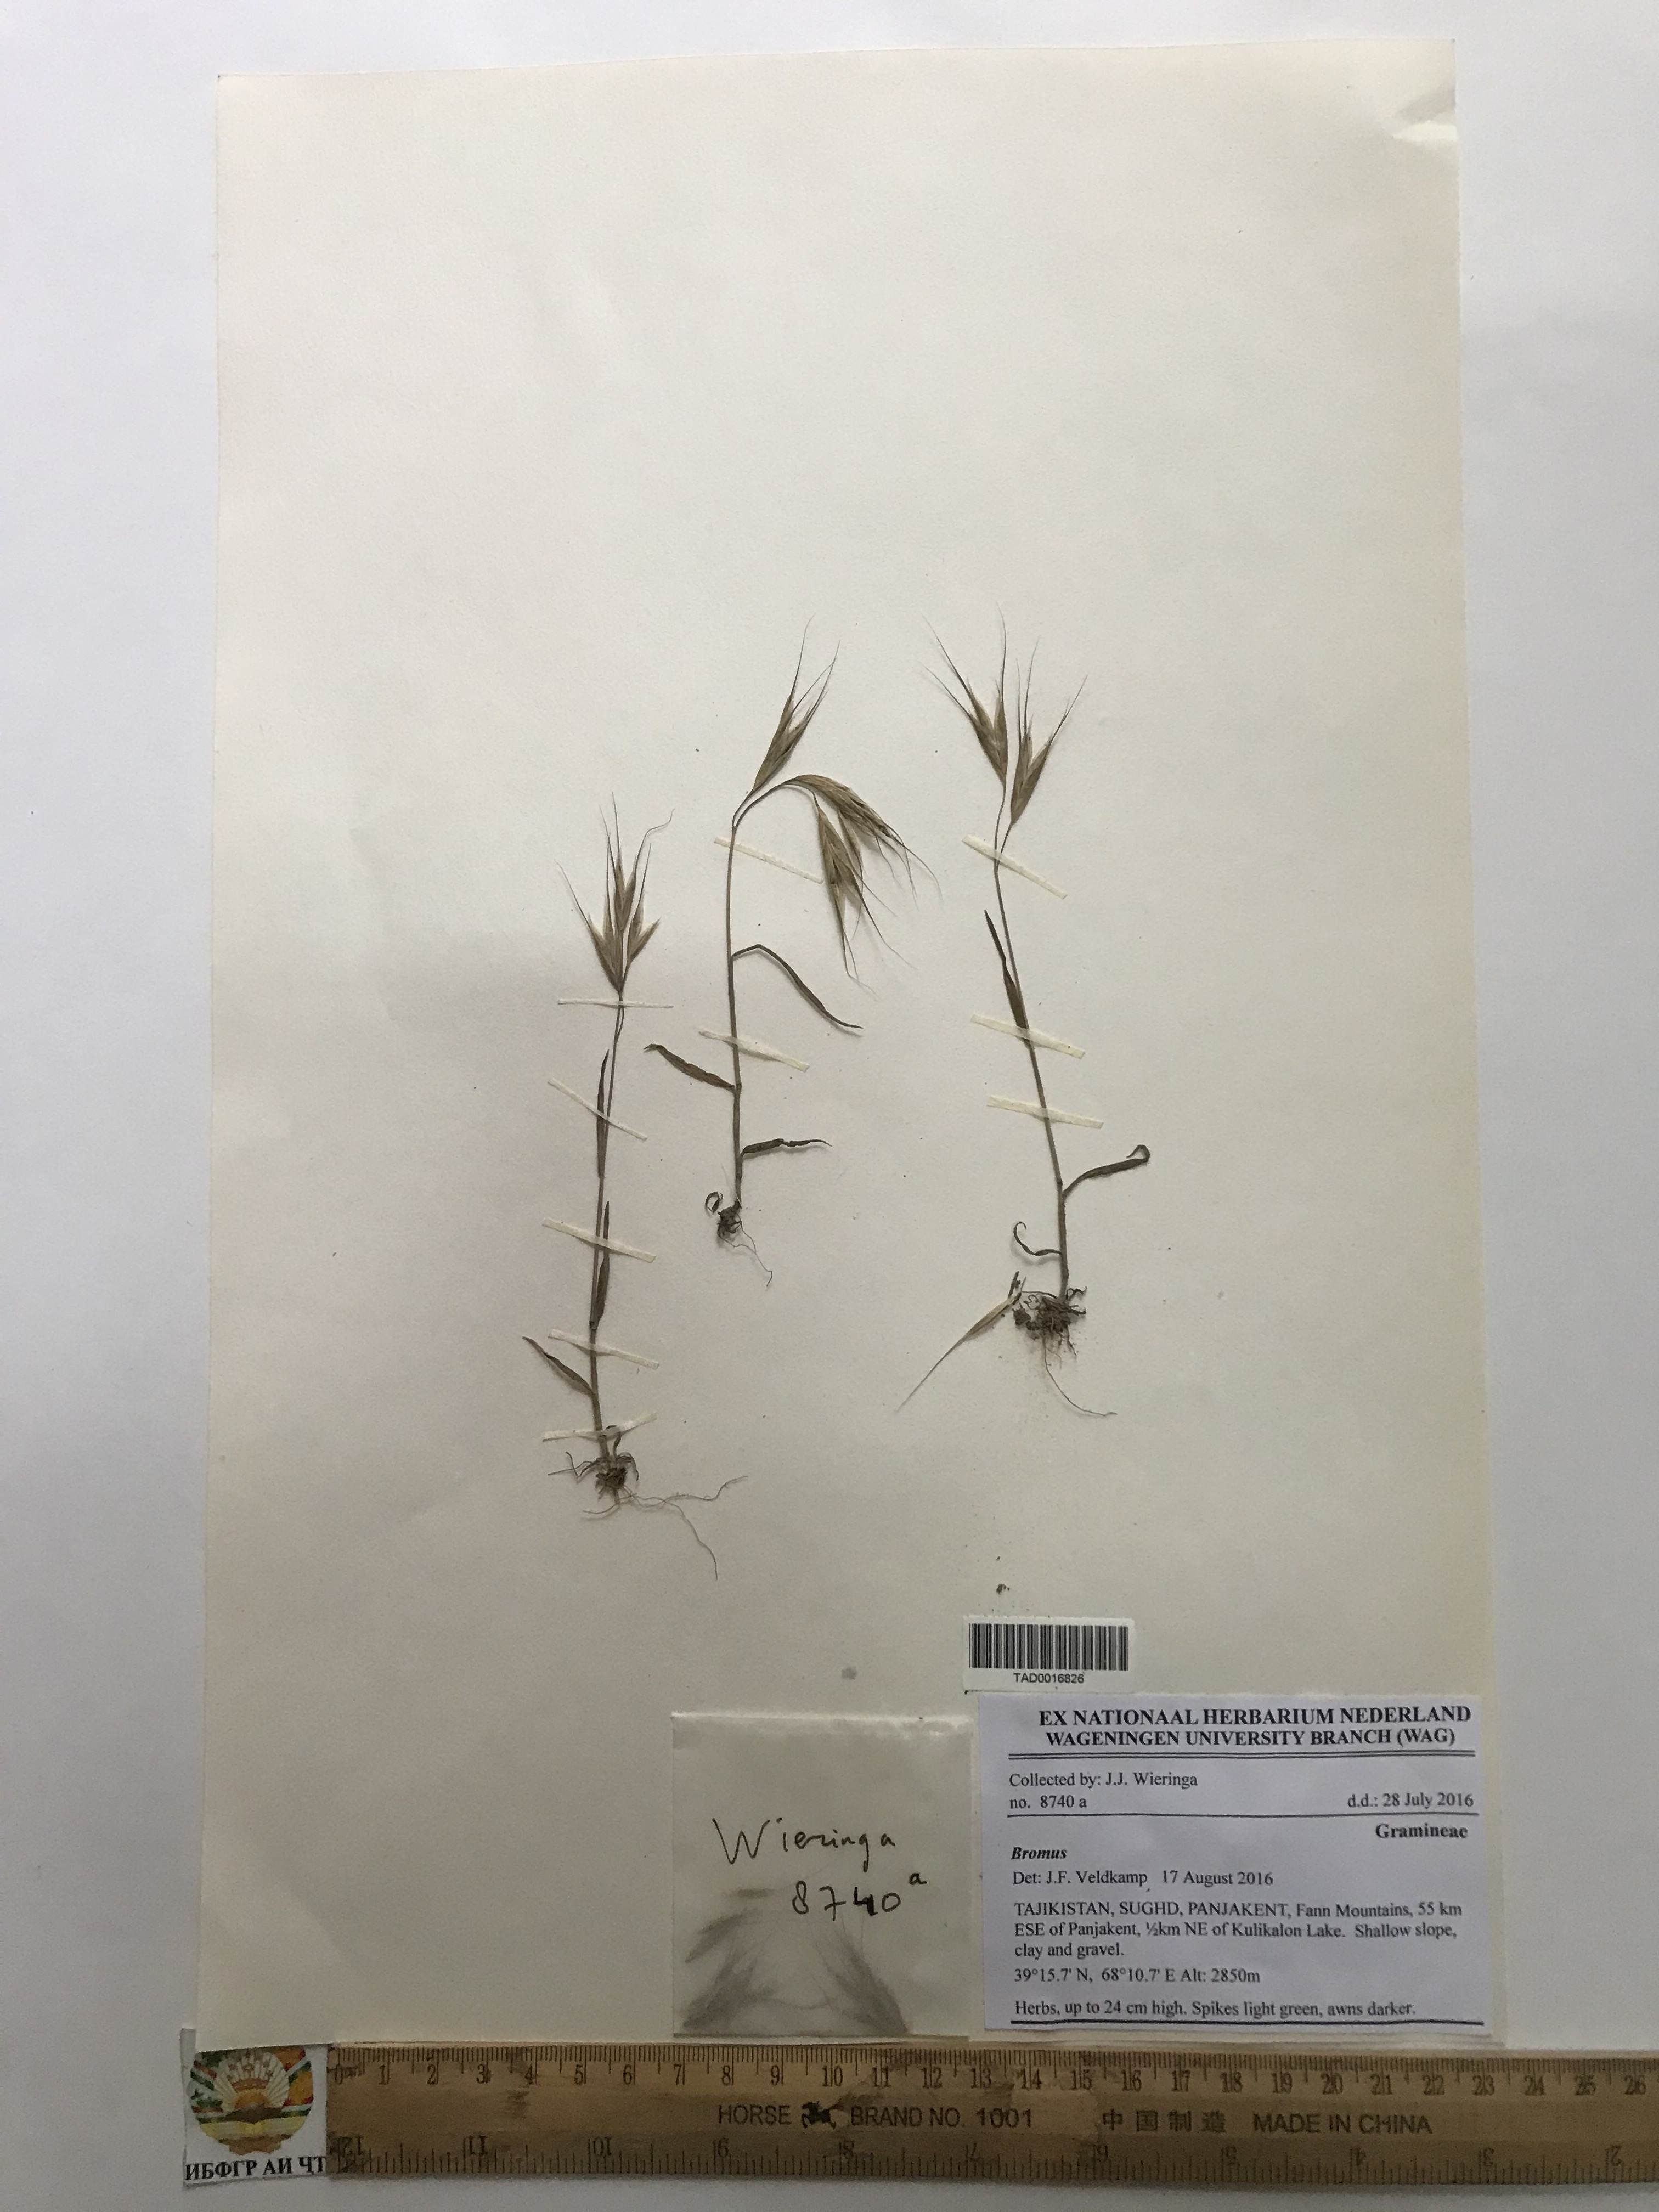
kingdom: Plantae
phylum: Tracheophyta
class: Liliopsida
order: Poales
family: Poaceae
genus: Bromus
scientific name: Bromus oxyodon
